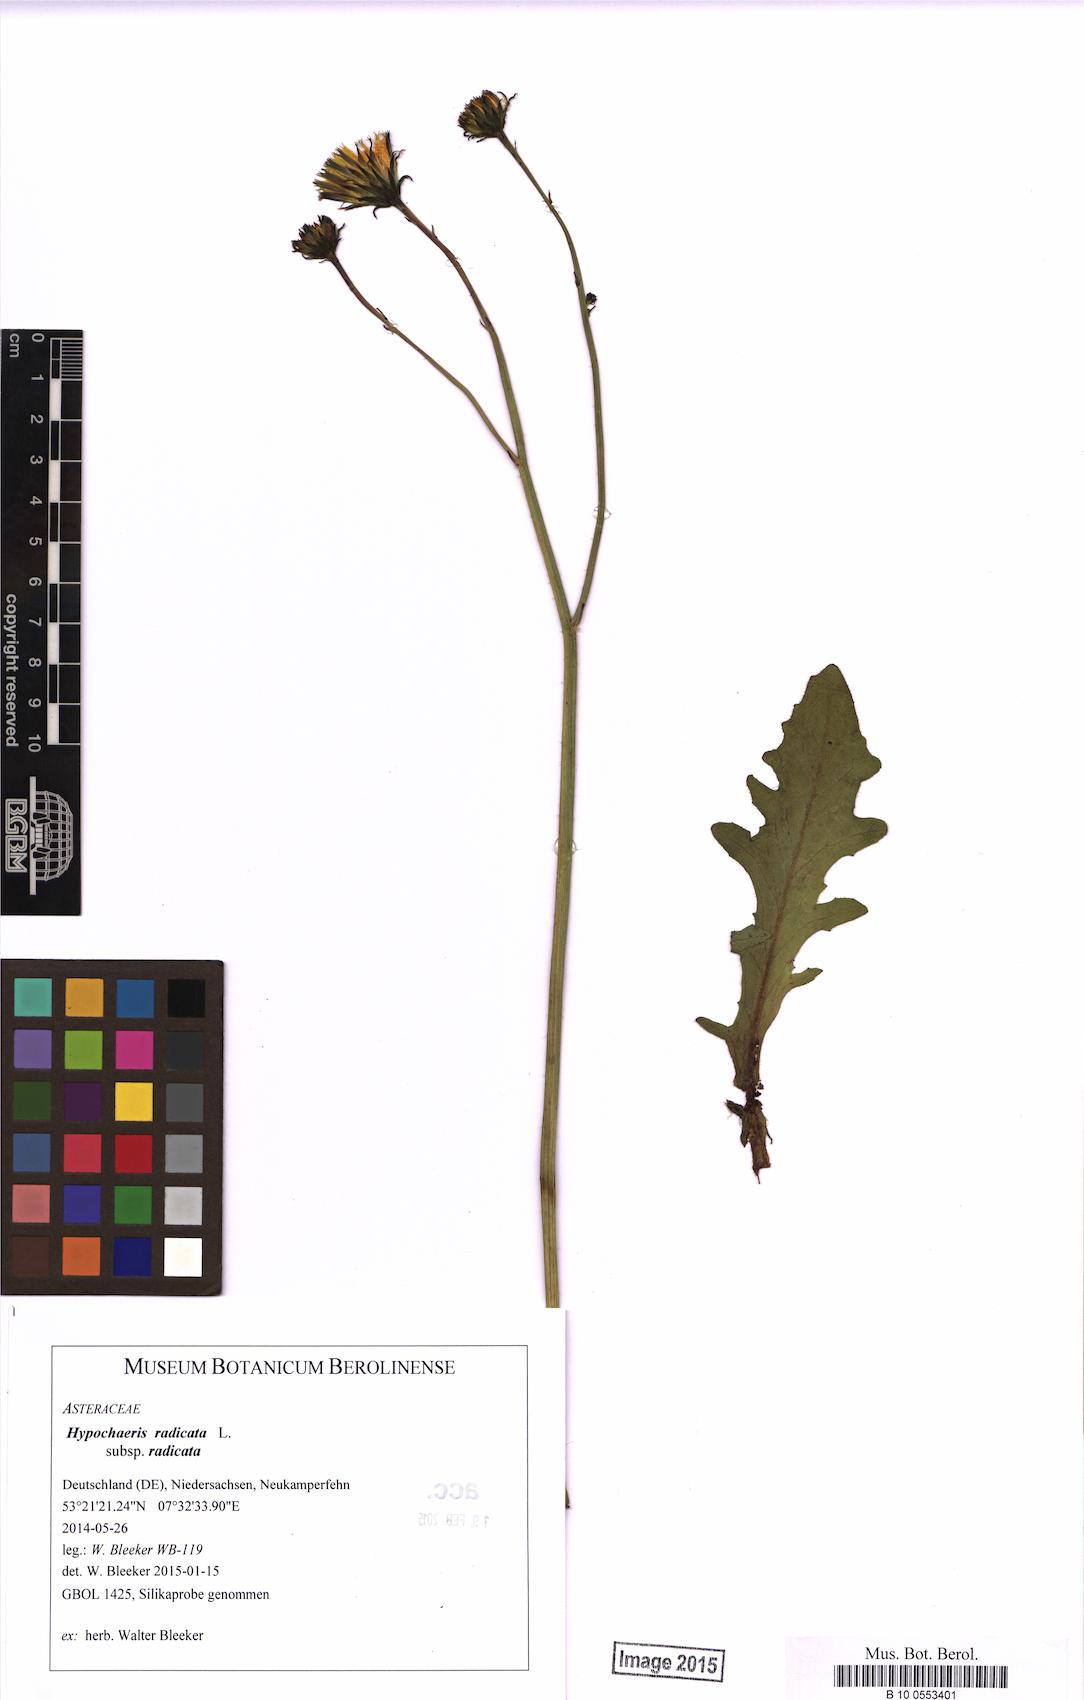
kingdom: Plantae
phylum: Tracheophyta
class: Magnoliopsida
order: Asterales
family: Asteraceae
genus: Hypochaeris
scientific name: Hypochaeris radicata
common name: Flatweed
